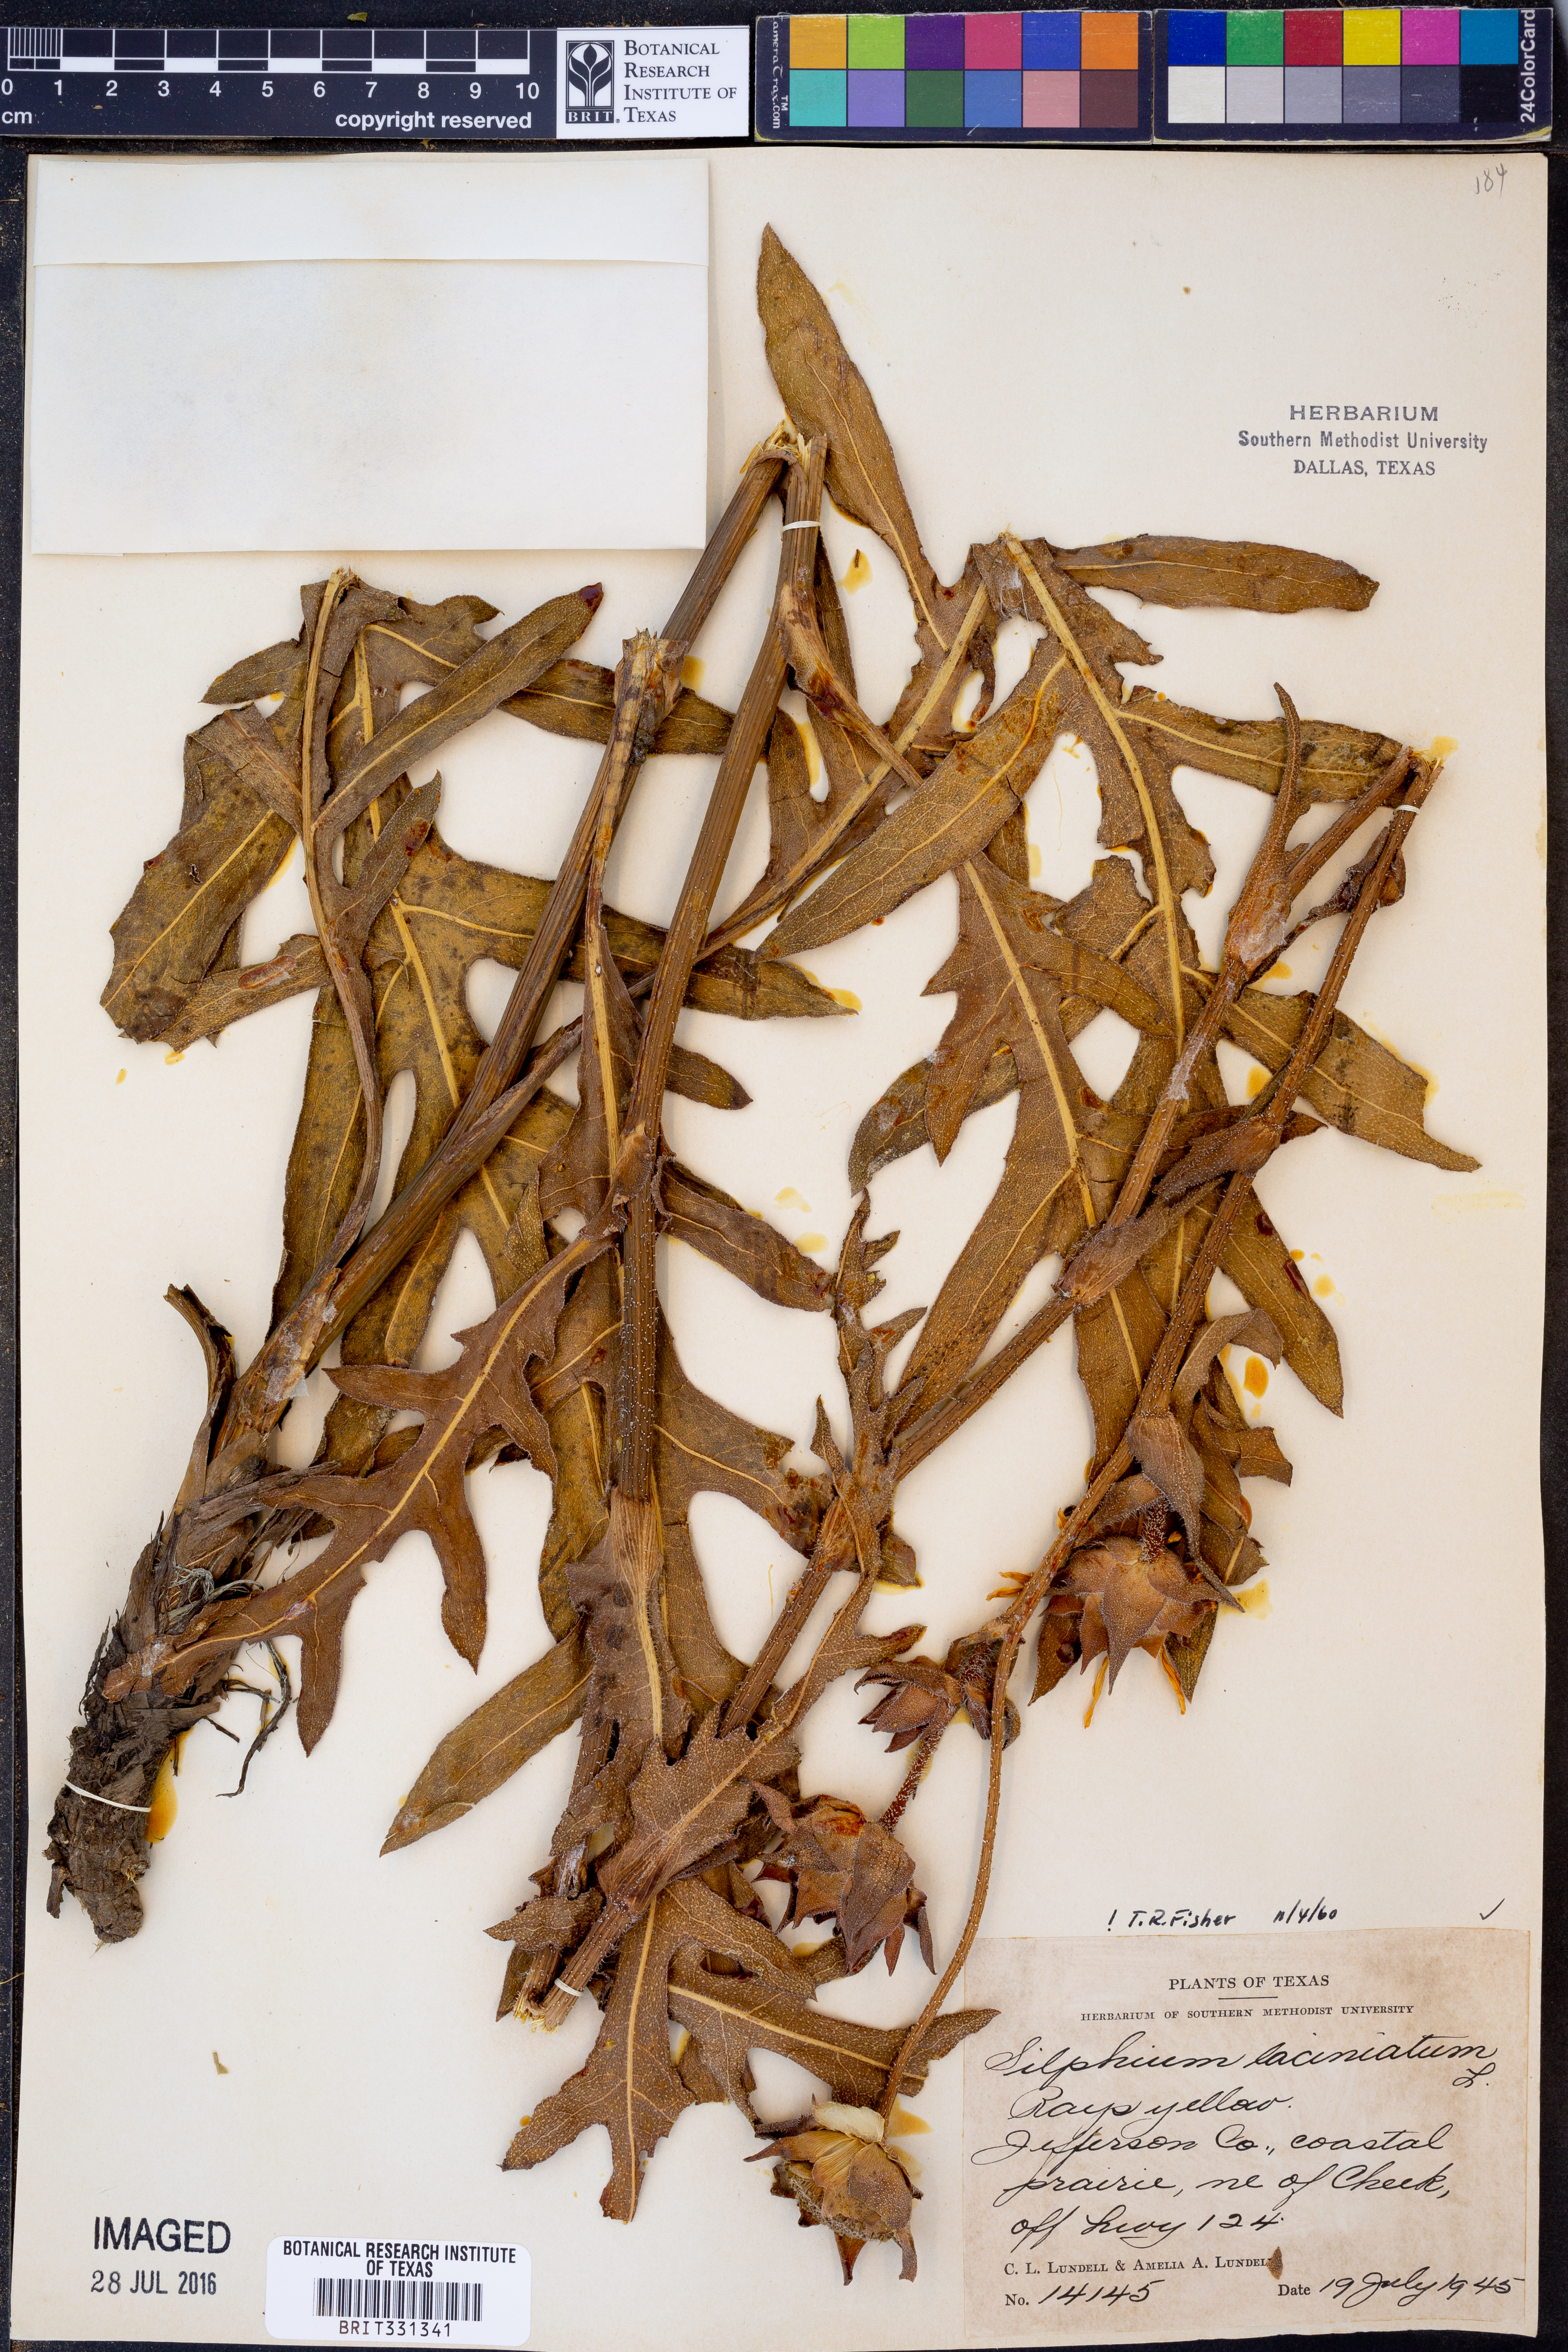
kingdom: Plantae
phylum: Tracheophyta
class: Magnoliopsida
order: Asterales
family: Asteraceae
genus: Silphium
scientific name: Silphium laciniatum
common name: Polarplant
